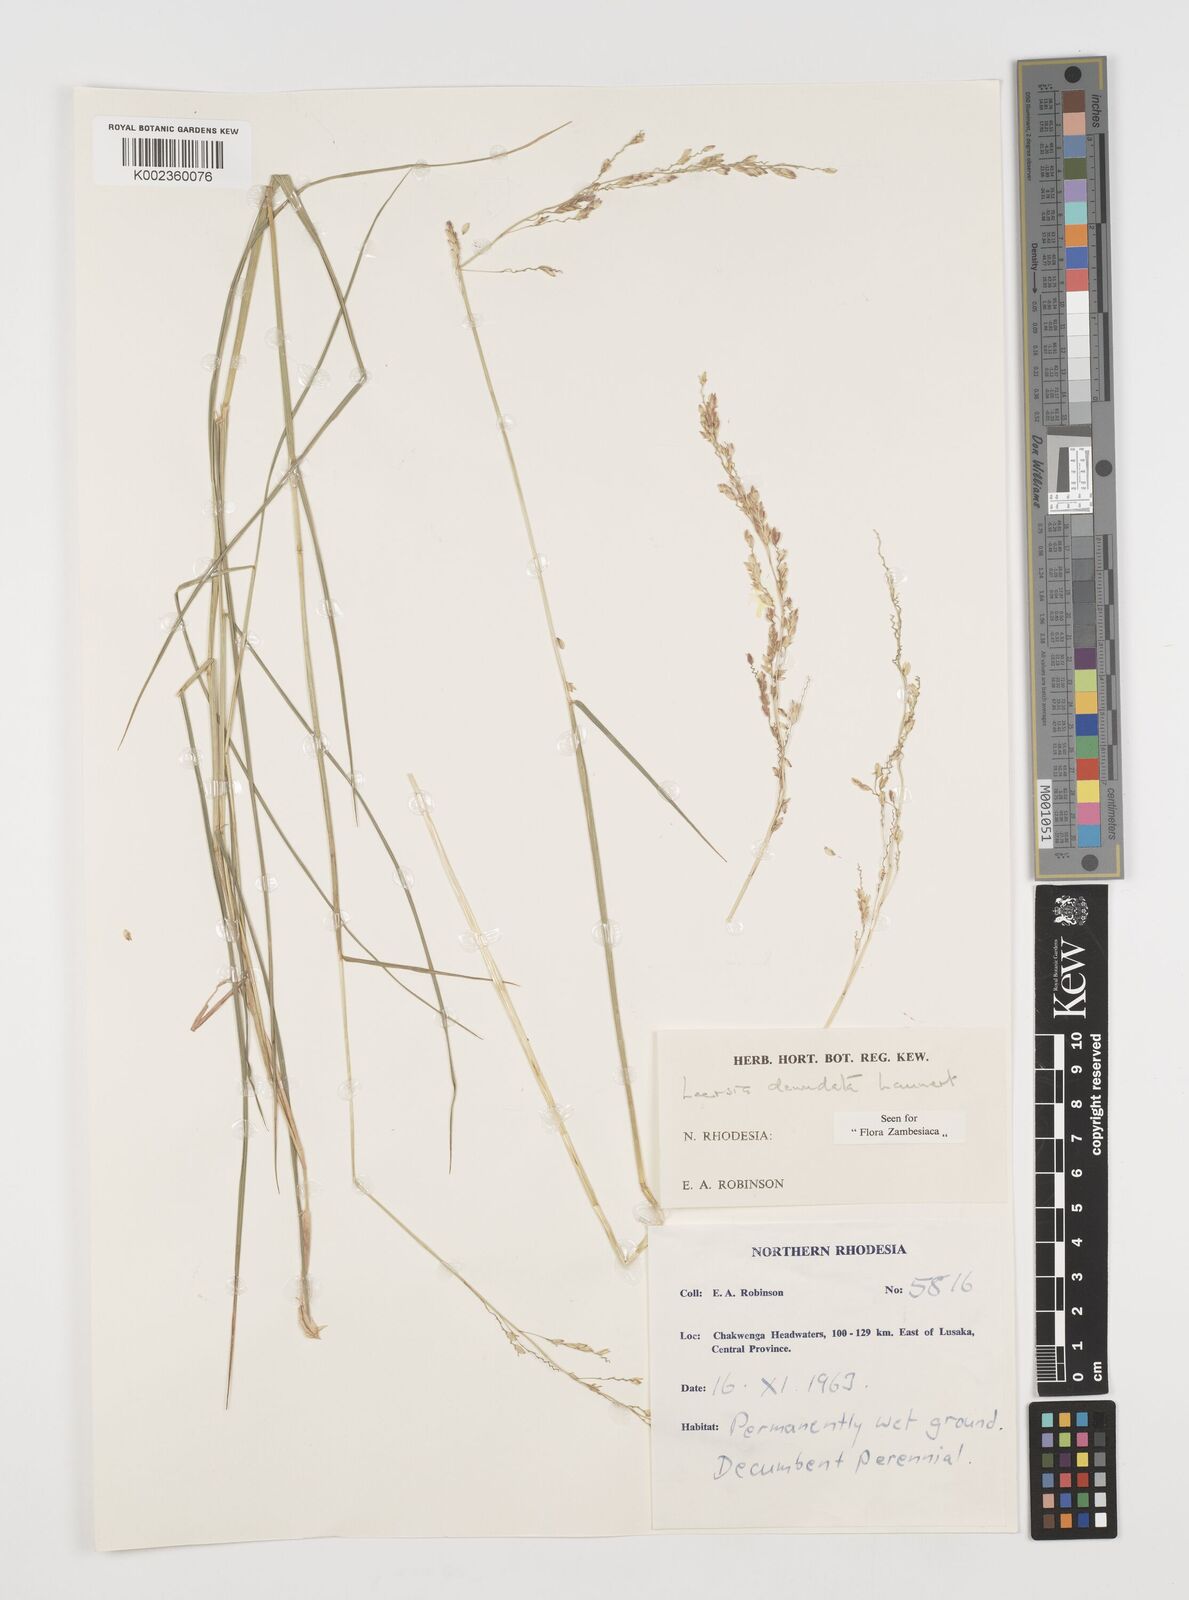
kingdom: Plantae
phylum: Tracheophyta
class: Liliopsida
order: Poales
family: Poaceae
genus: Leersia
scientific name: Leersia denudata
